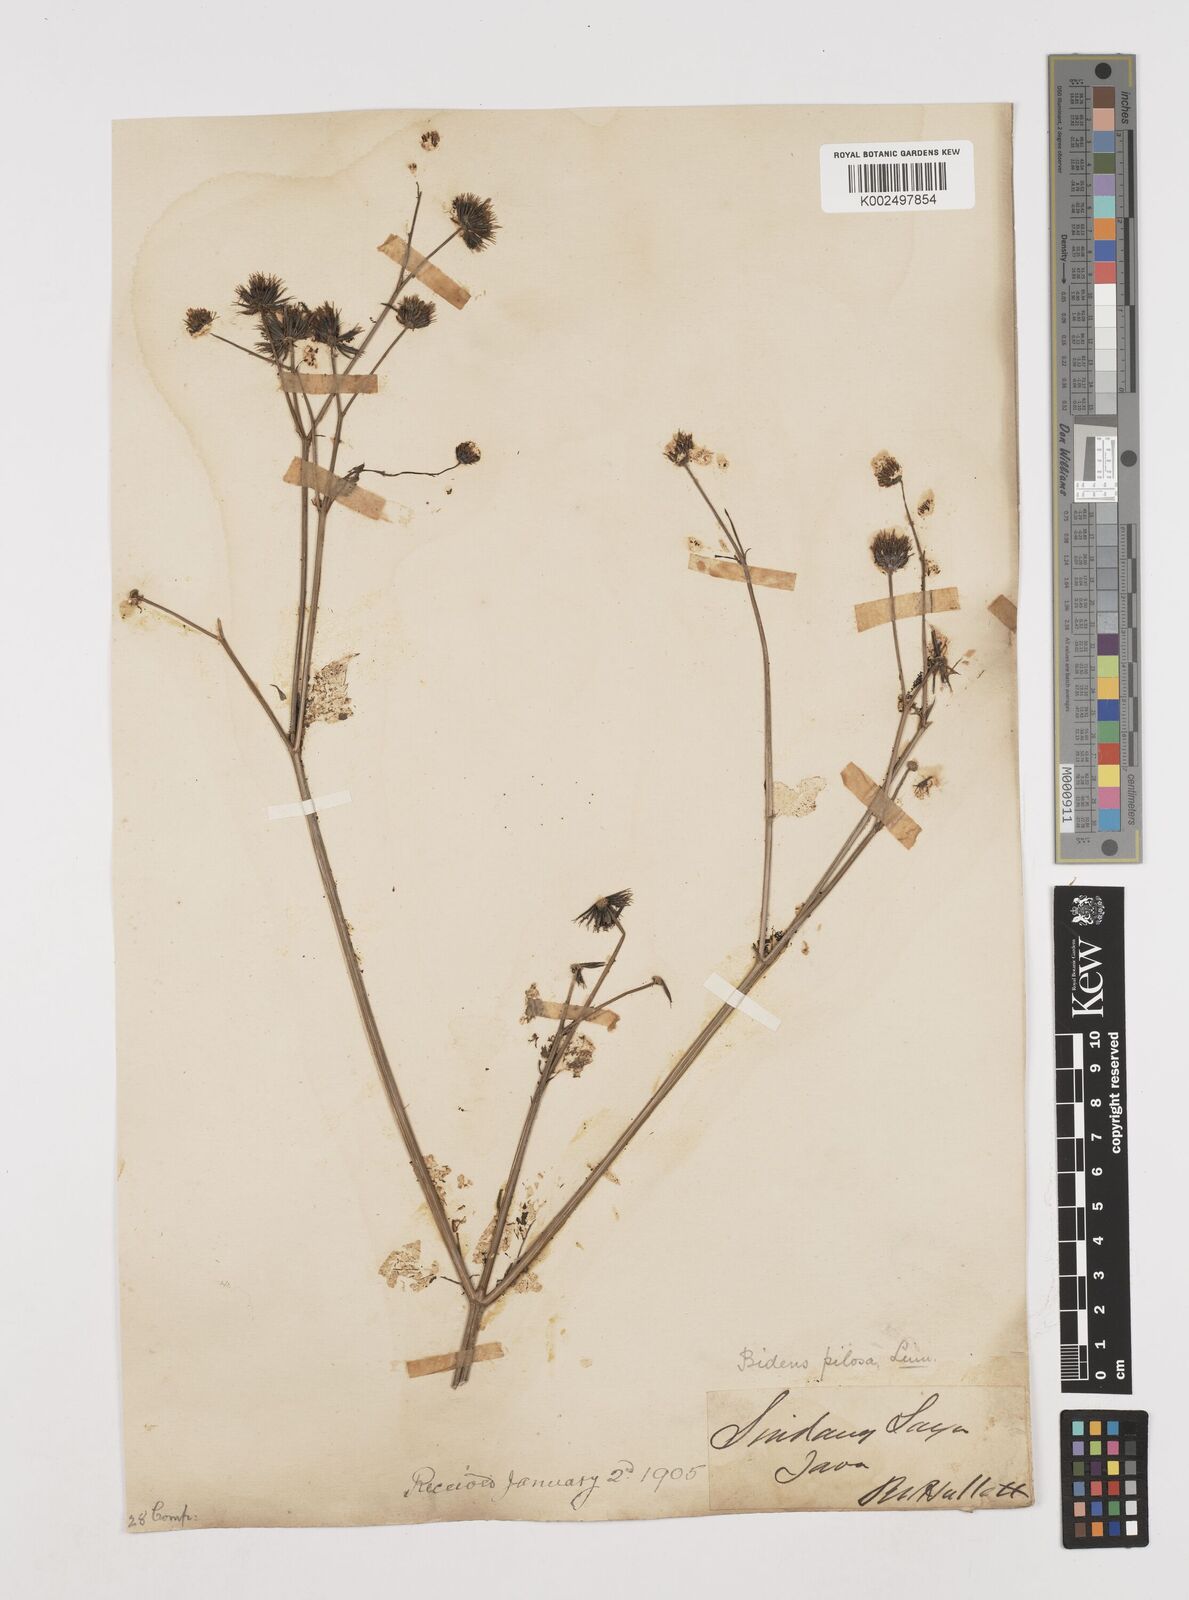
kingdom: Plantae
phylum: Tracheophyta
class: Magnoliopsida
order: Asterales
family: Asteraceae
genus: Bidens
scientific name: Bidens biternata
